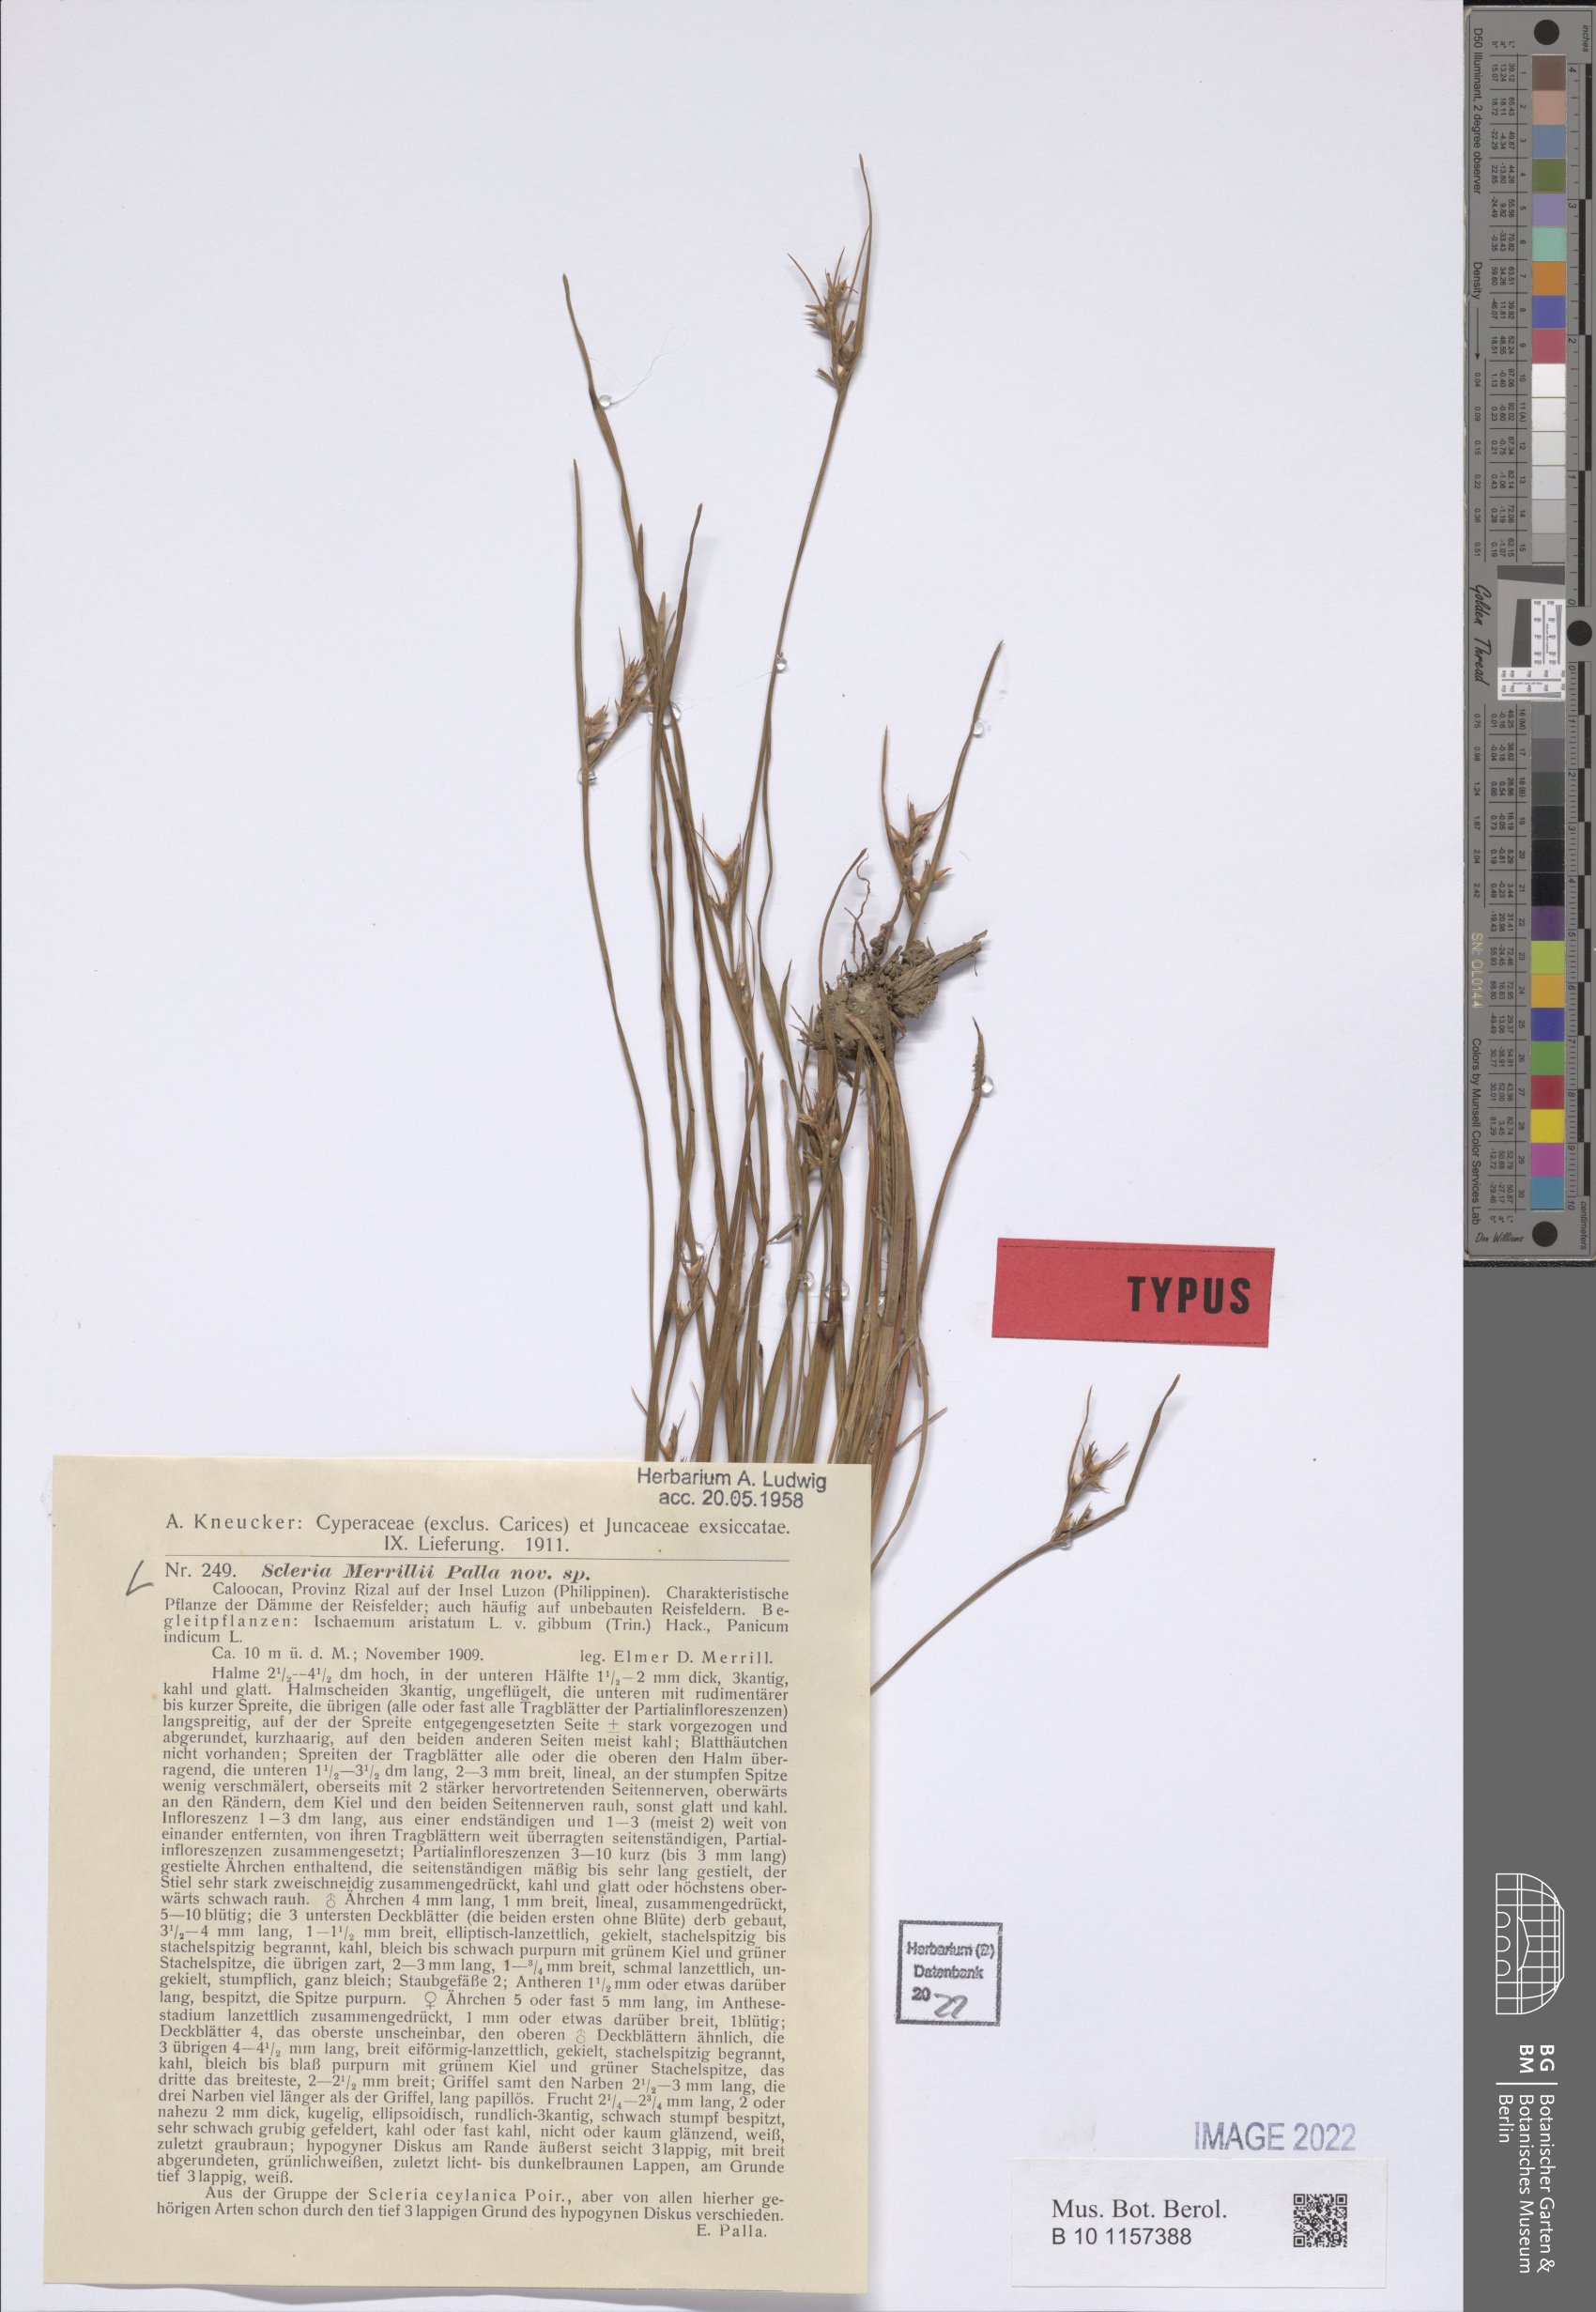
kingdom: Plantae
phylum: Tracheophyta
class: Liliopsida
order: Poales
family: Cyperaceae
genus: Scleria
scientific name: Scleria novae-hollandiae
